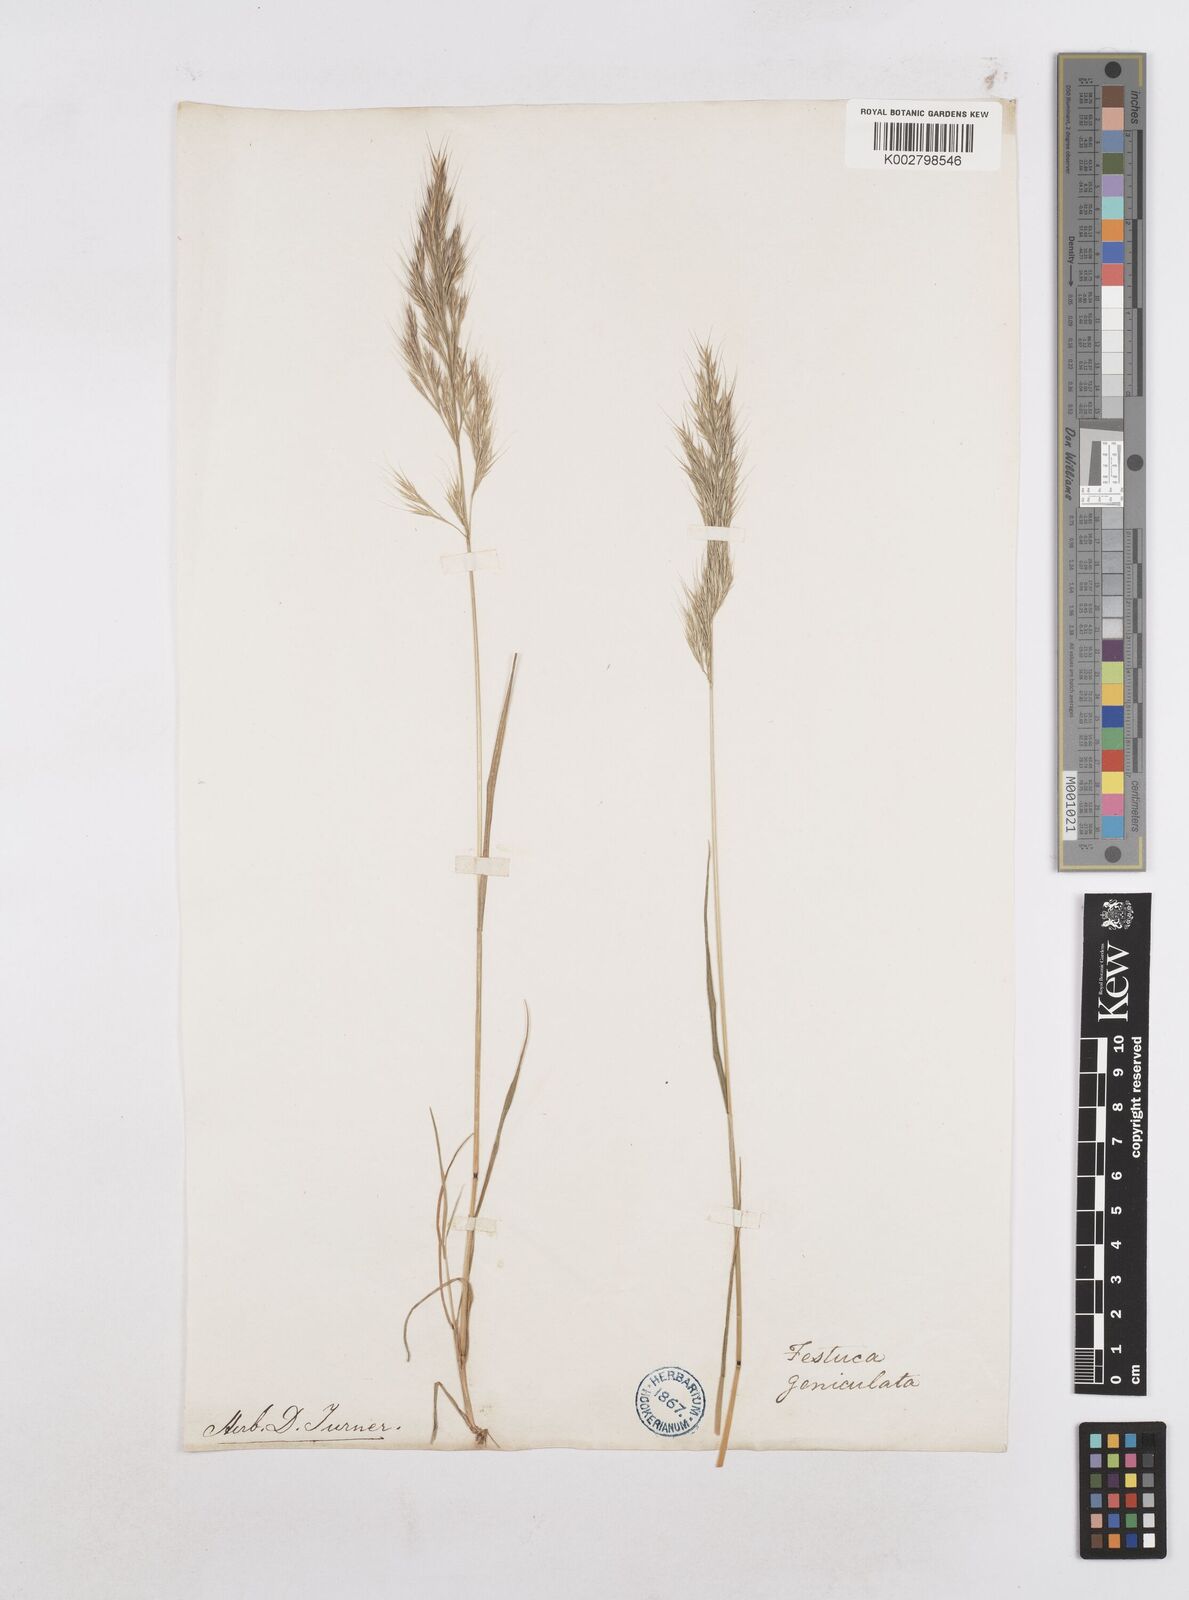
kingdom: Plantae
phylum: Tracheophyta
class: Liliopsida
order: Poales
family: Poaceae
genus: Festuca
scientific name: Festuca geniculata
